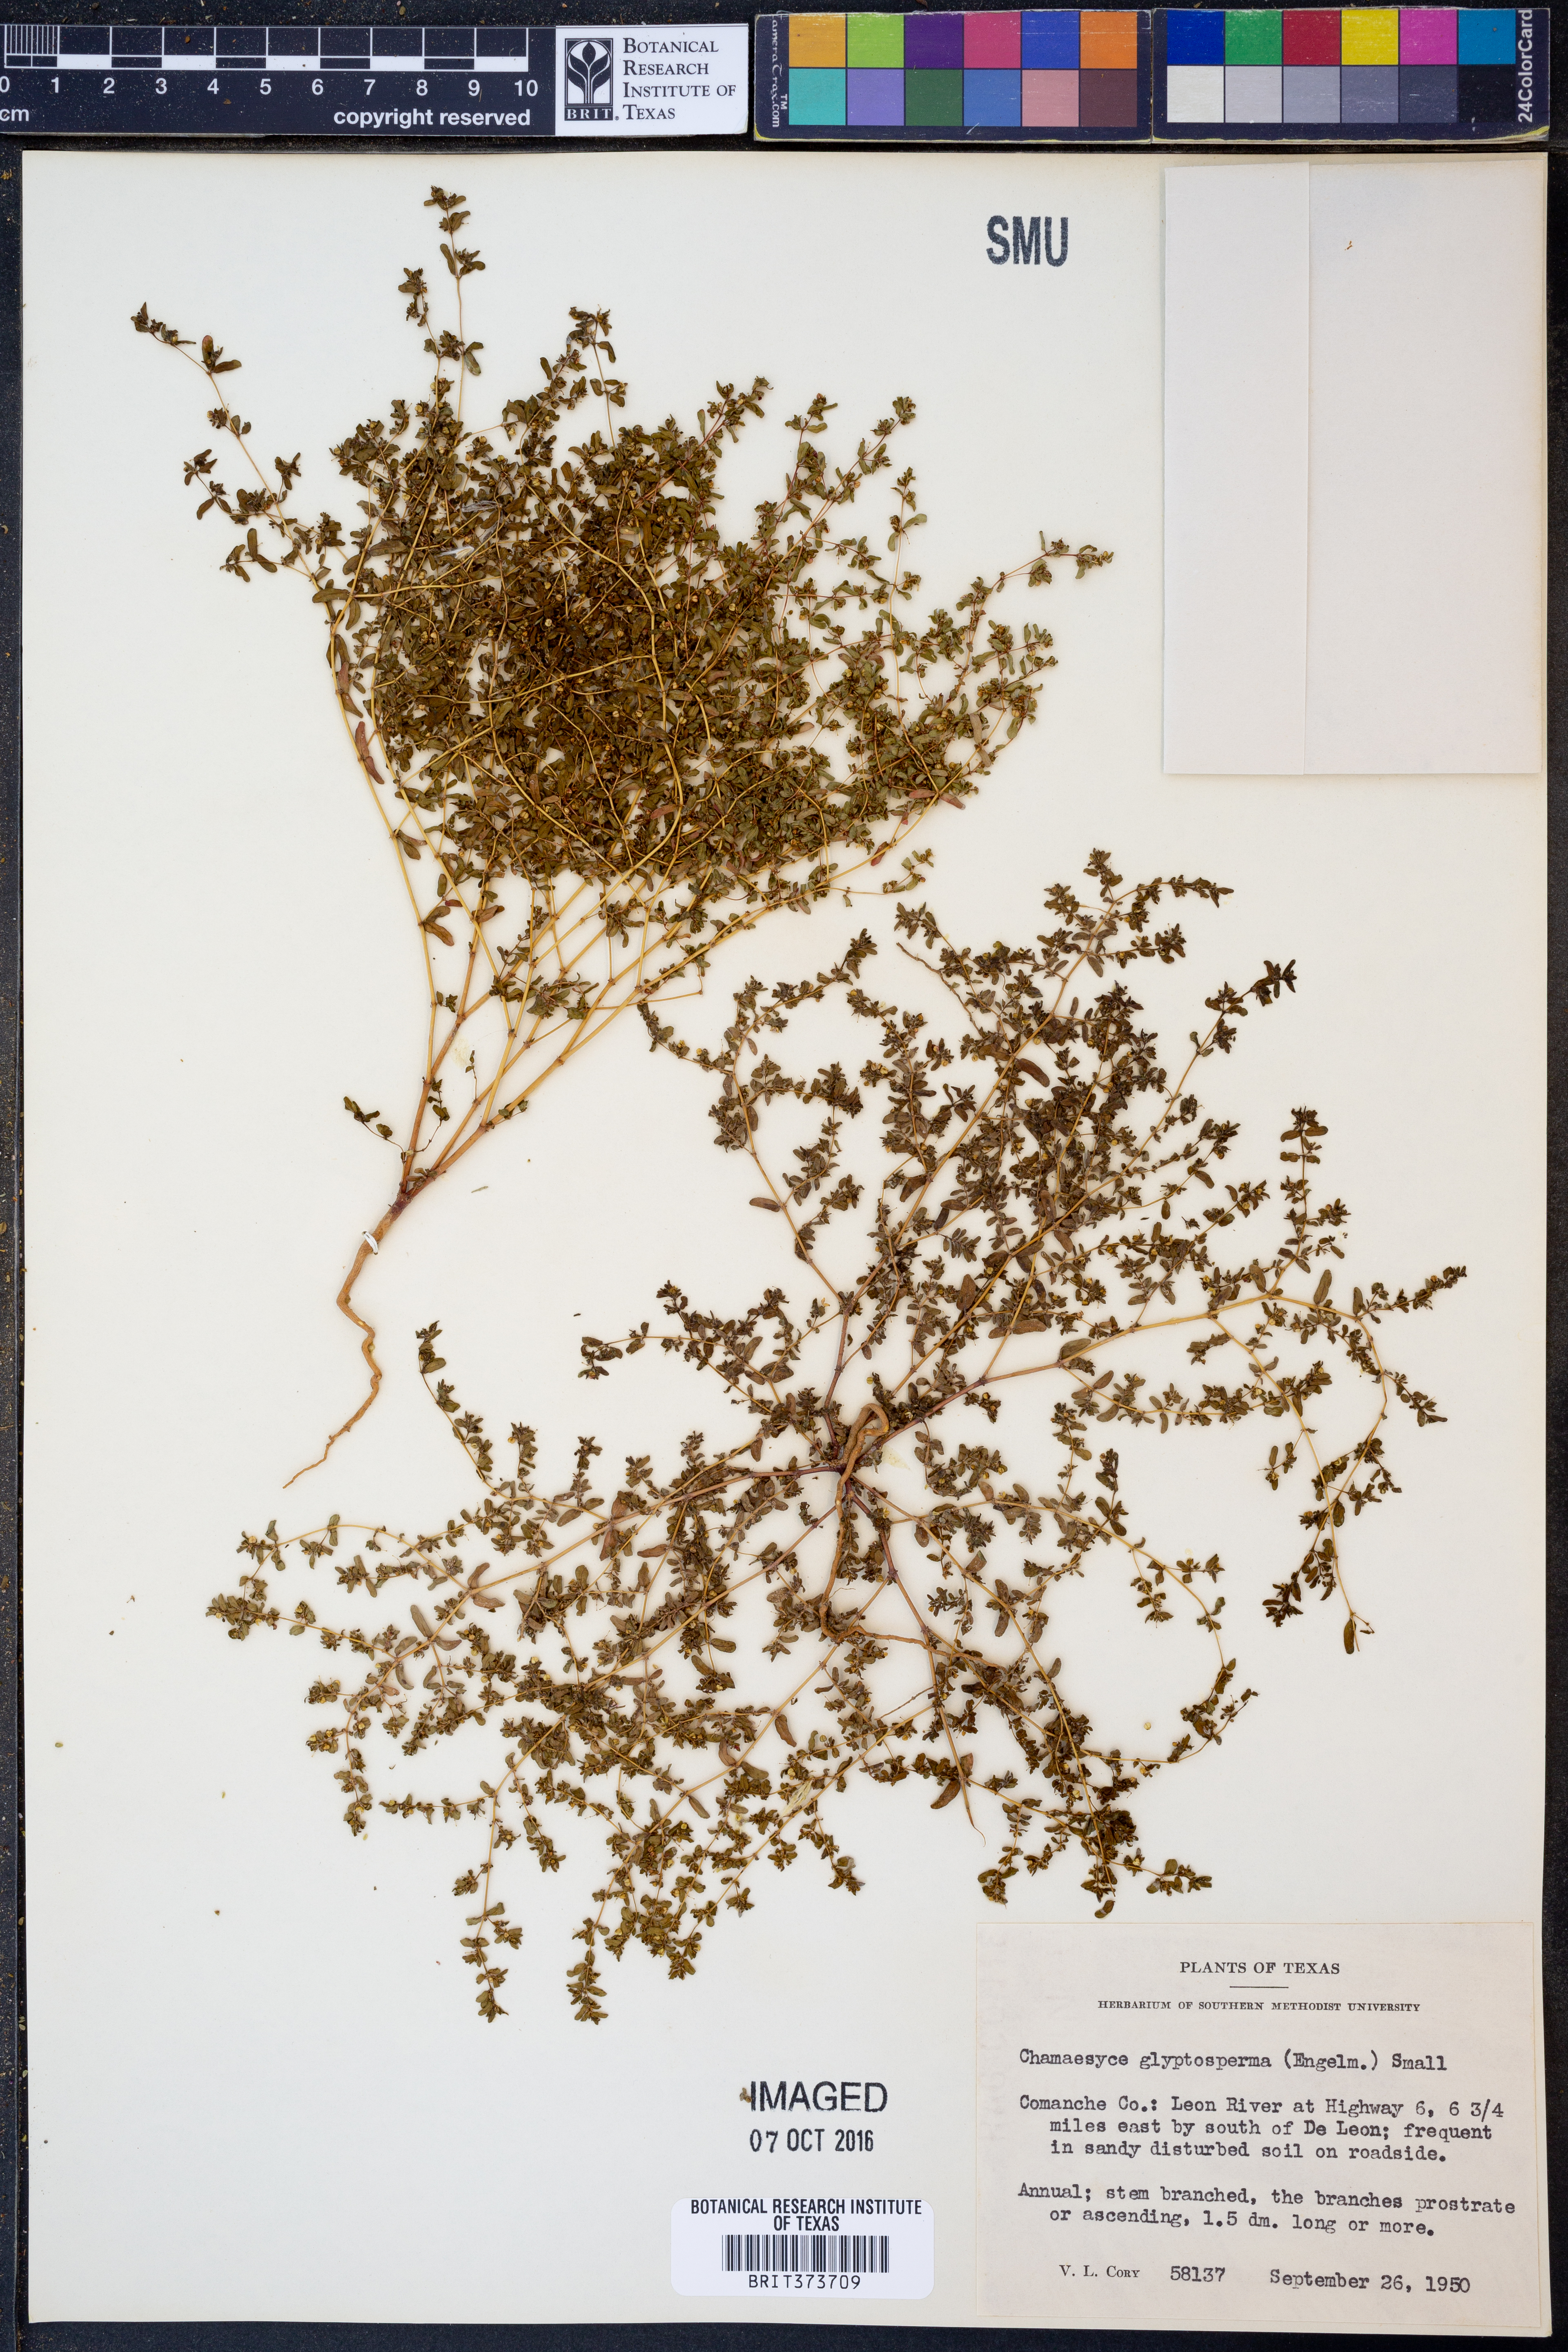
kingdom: Plantae
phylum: Tracheophyta
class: Magnoliopsida
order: Malpighiales
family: Euphorbiaceae
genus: Euphorbia
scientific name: Euphorbia glyptosperma
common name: Corrugate-seeded spurge
